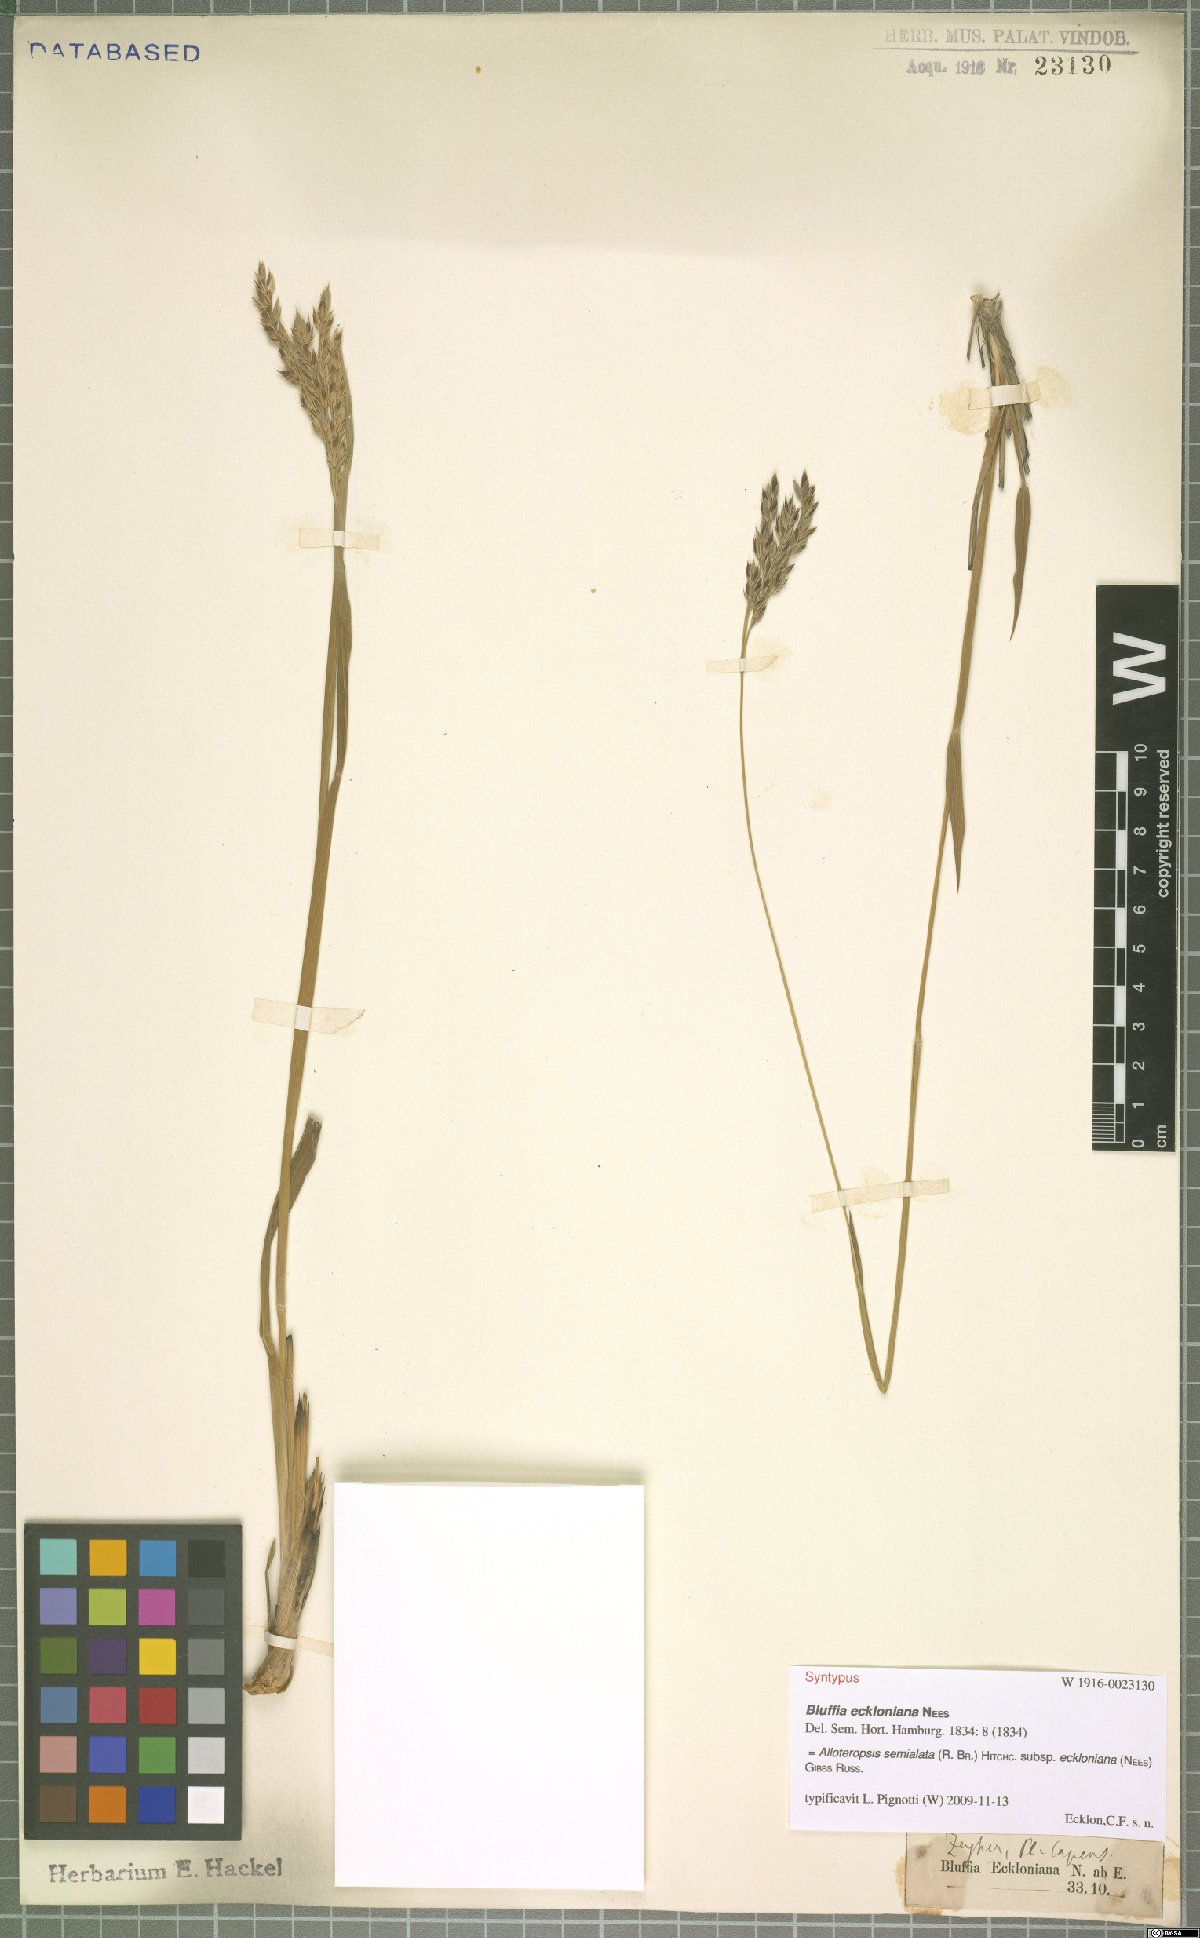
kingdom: Plantae
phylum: Tracheophyta
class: Liliopsida
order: Poales
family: Poaceae
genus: Alloteropsis
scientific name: Alloteropsis semialata
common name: Cockatoo grass
